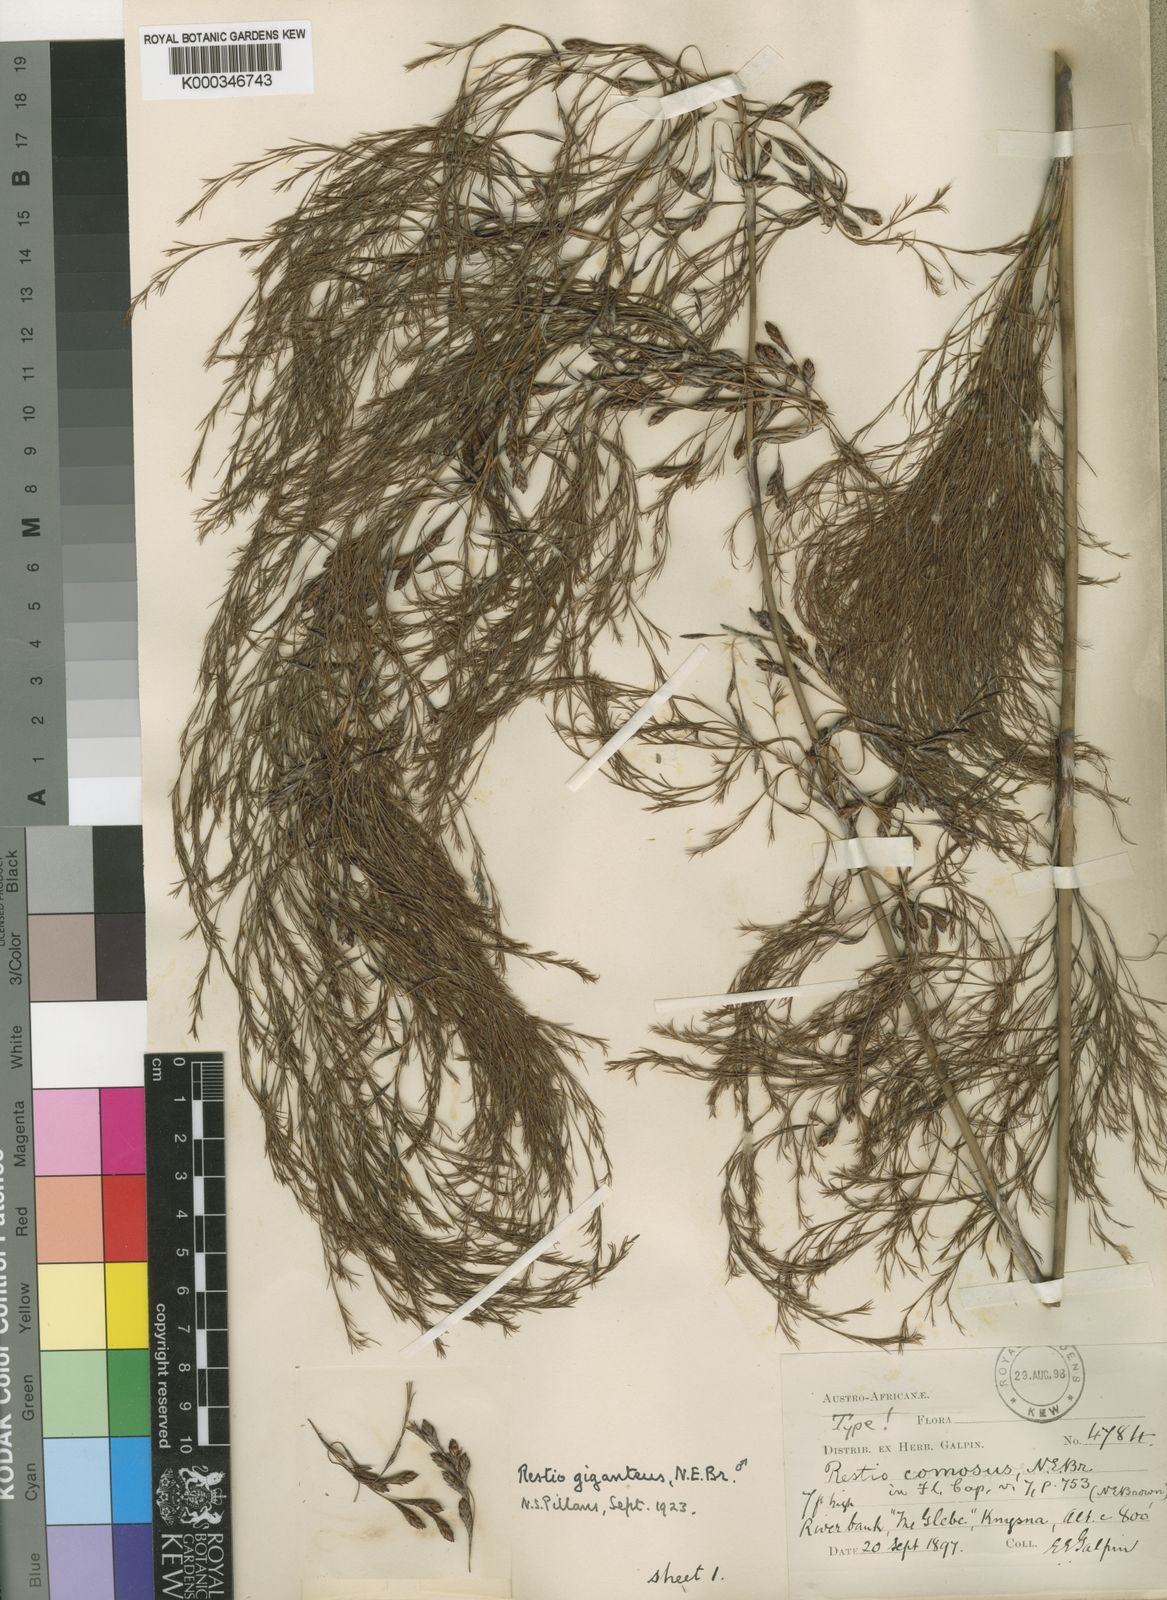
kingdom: Plantae
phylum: Tracheophyta
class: Liliopsida
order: Poales
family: Restionaceae
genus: Rhodocoma
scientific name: Rhodocoma gigantea
